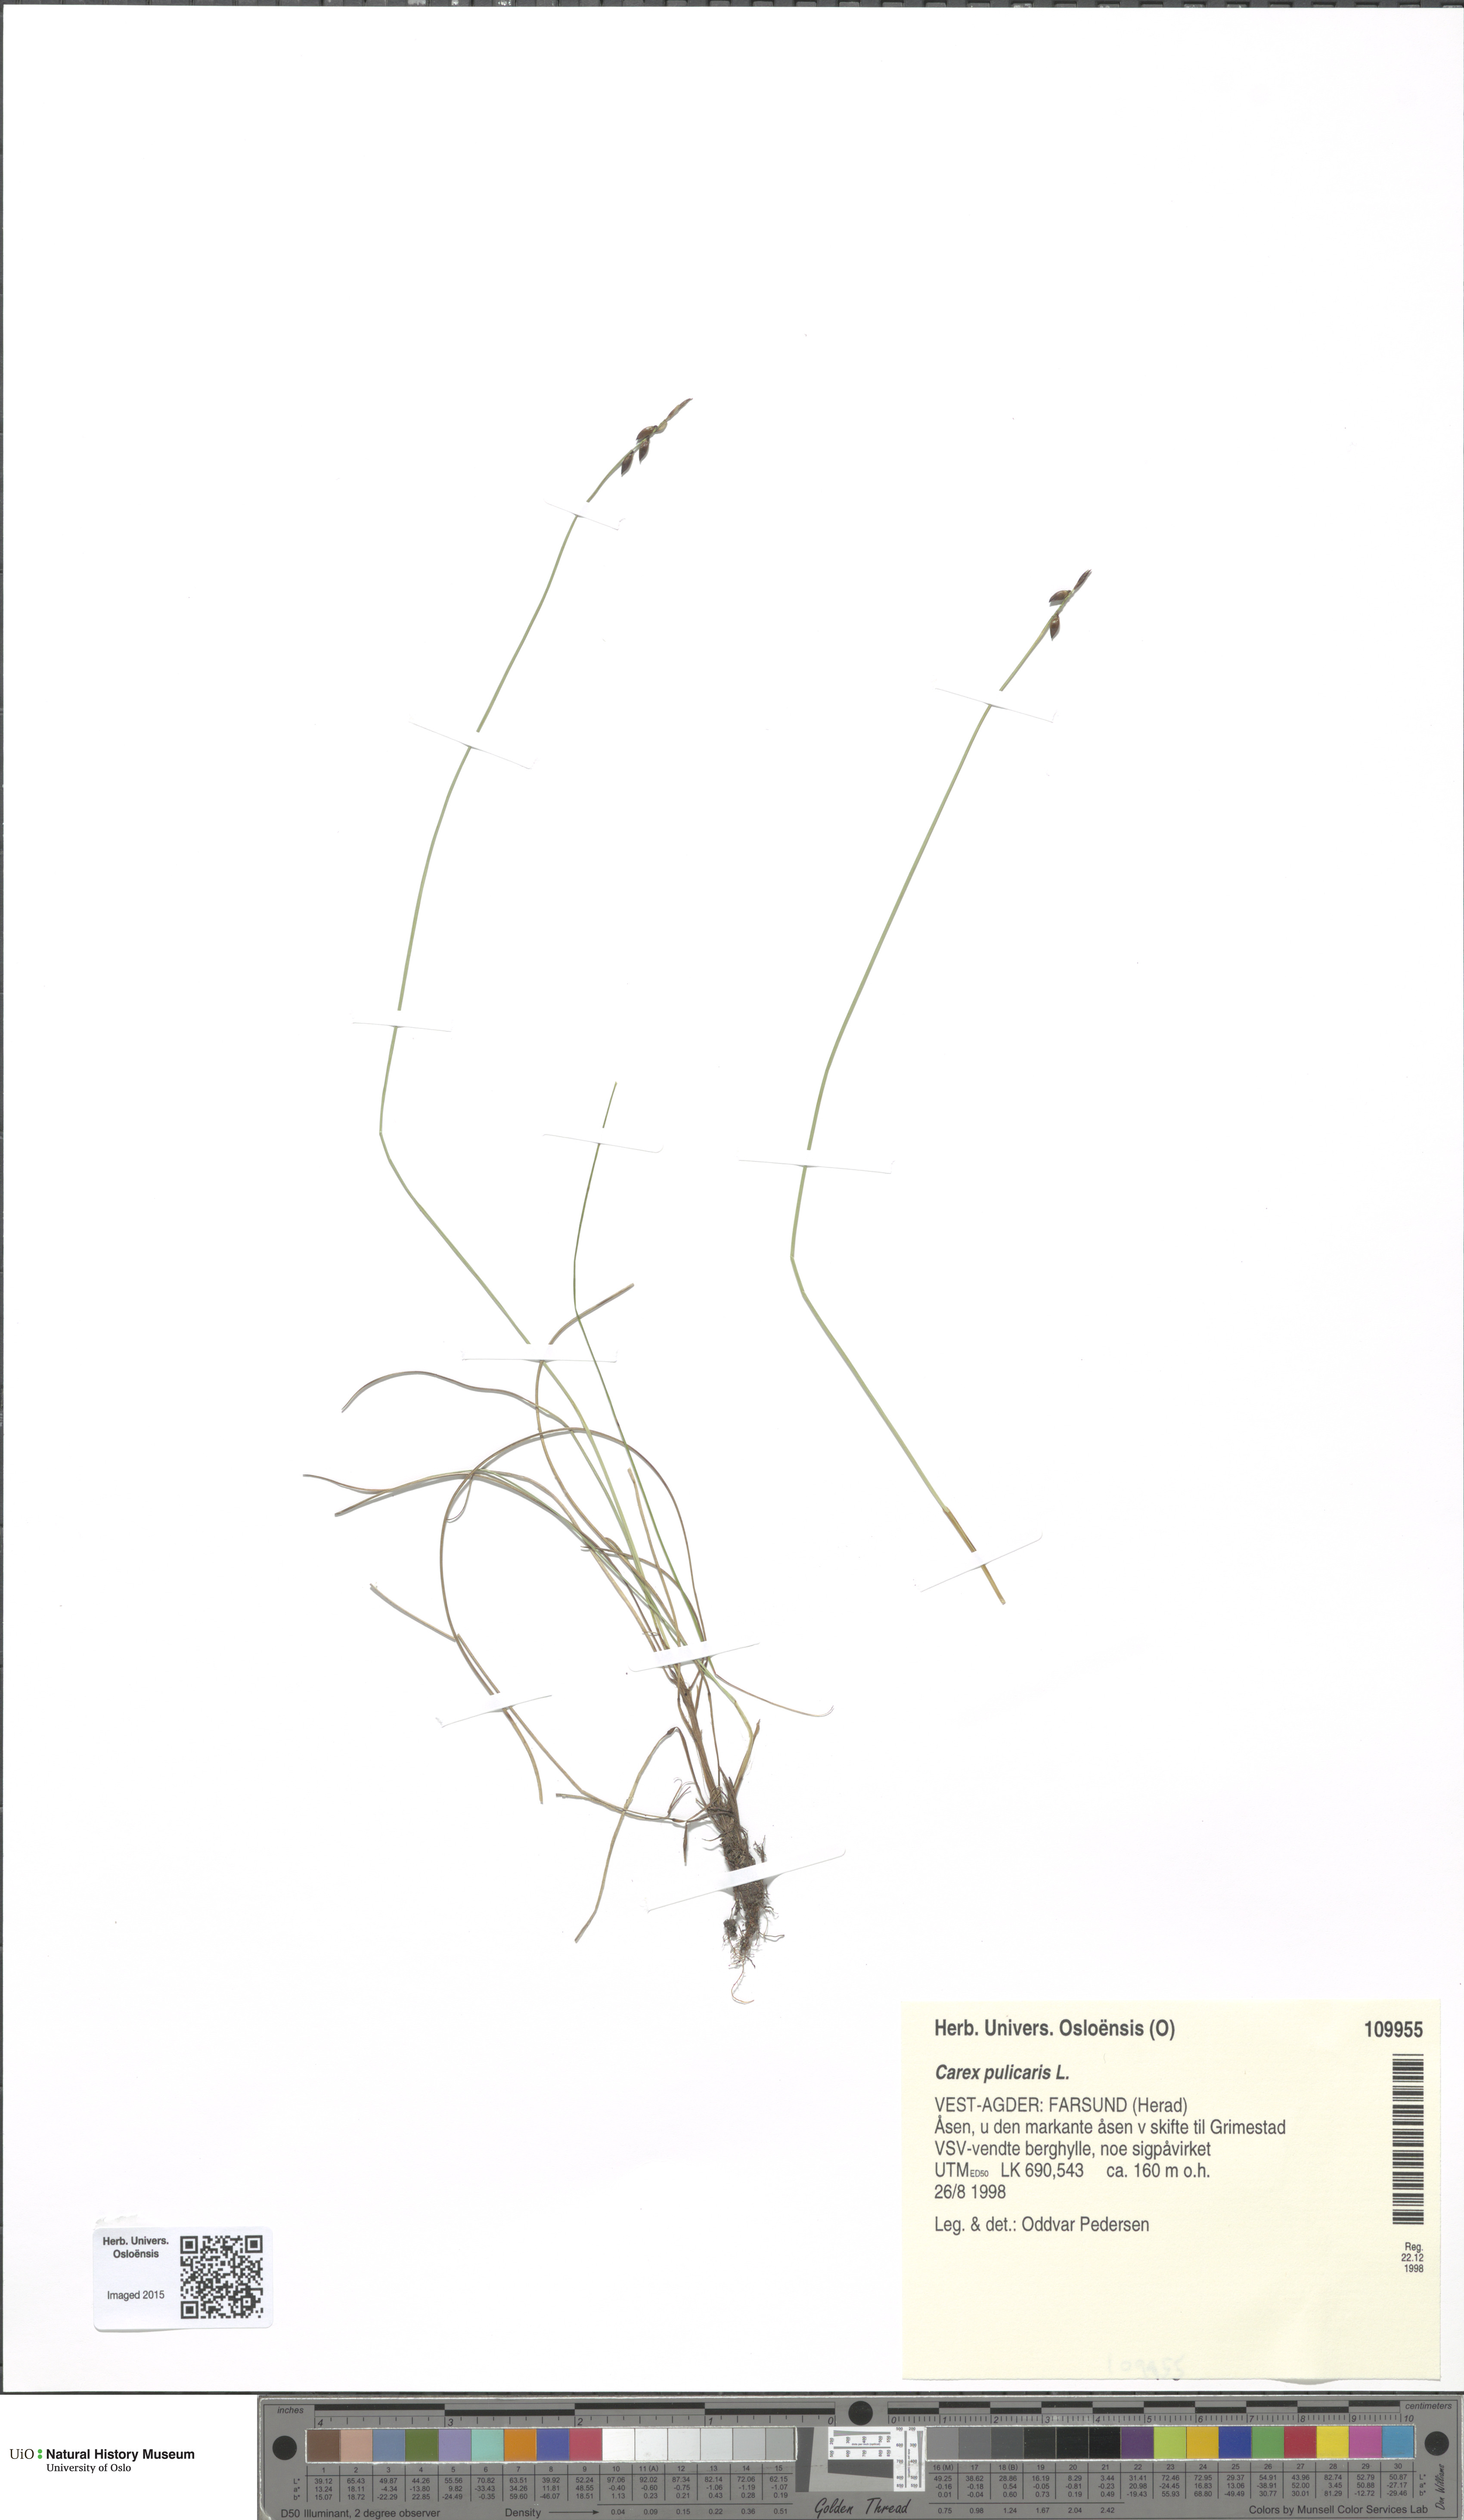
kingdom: Plantae
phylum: Tracheophyta
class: Liliopsida
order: Poales
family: Cyperaceae
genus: Carex
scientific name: Carex pulicaris
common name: Flea sedge
